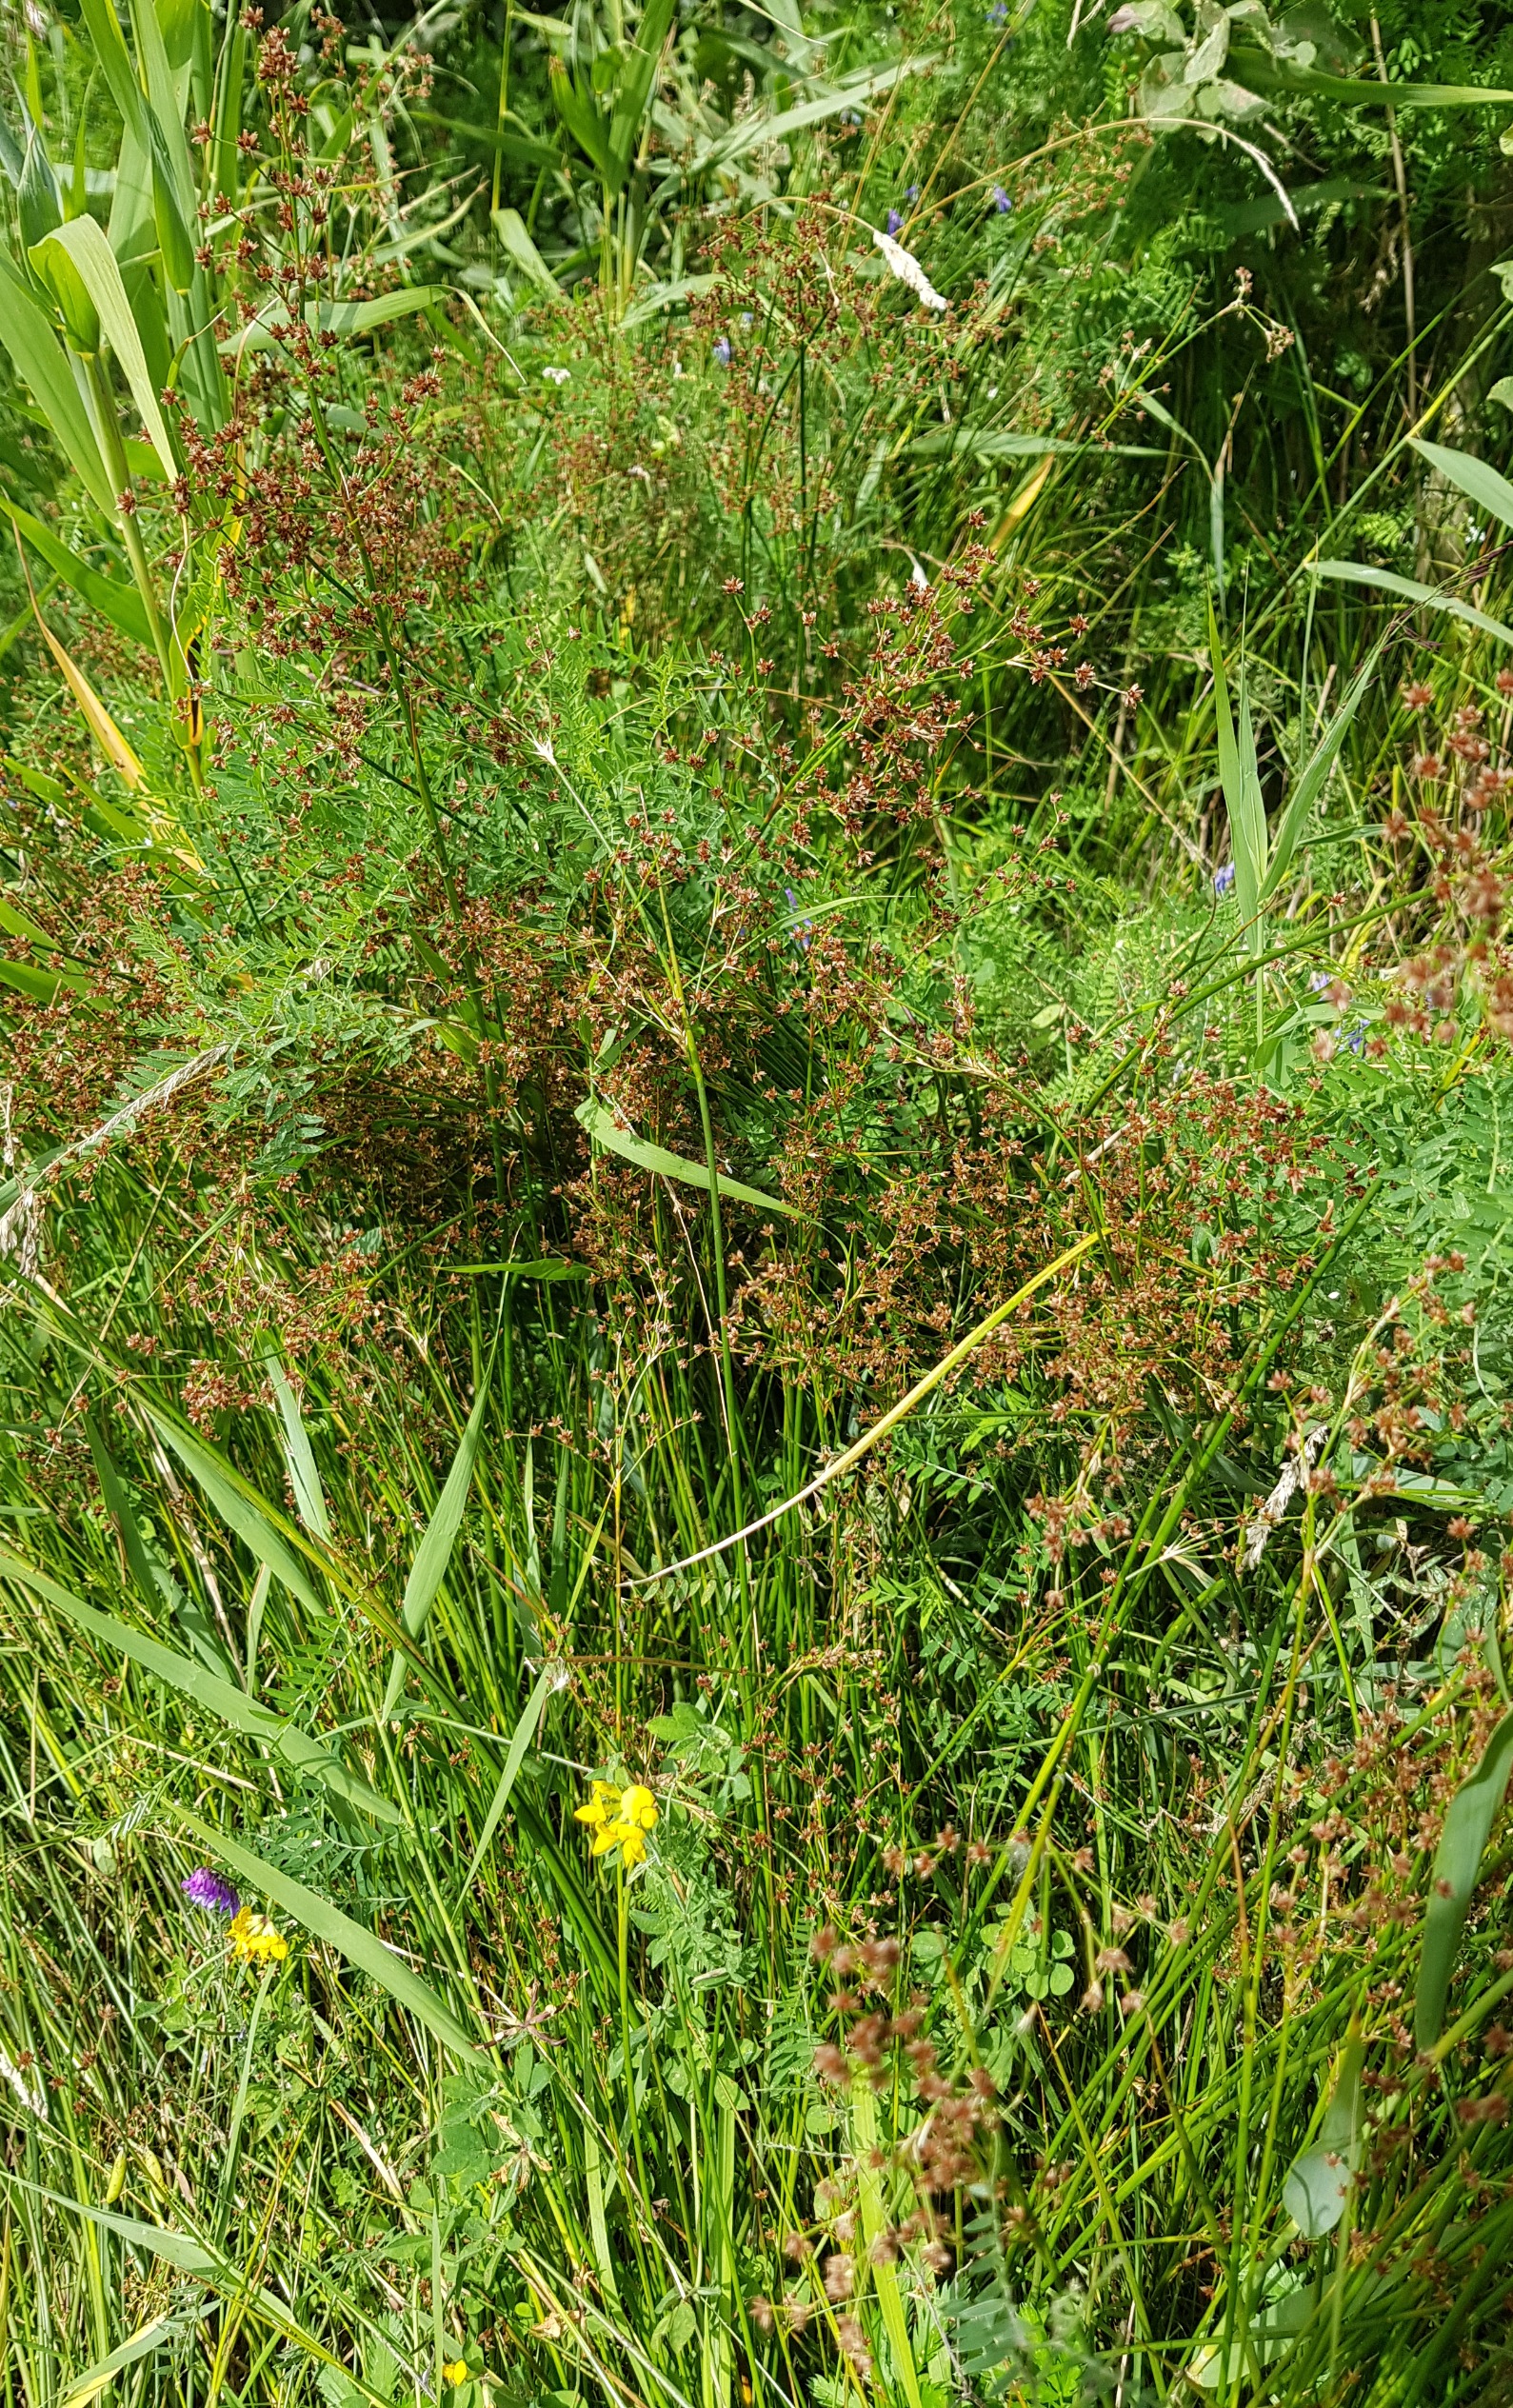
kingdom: Plantae
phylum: Tracheophyta
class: Liliopsida
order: Poales
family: Juncaceae
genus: Juncus
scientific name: Juncus acutiflorus
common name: Spidsblomstret siv
